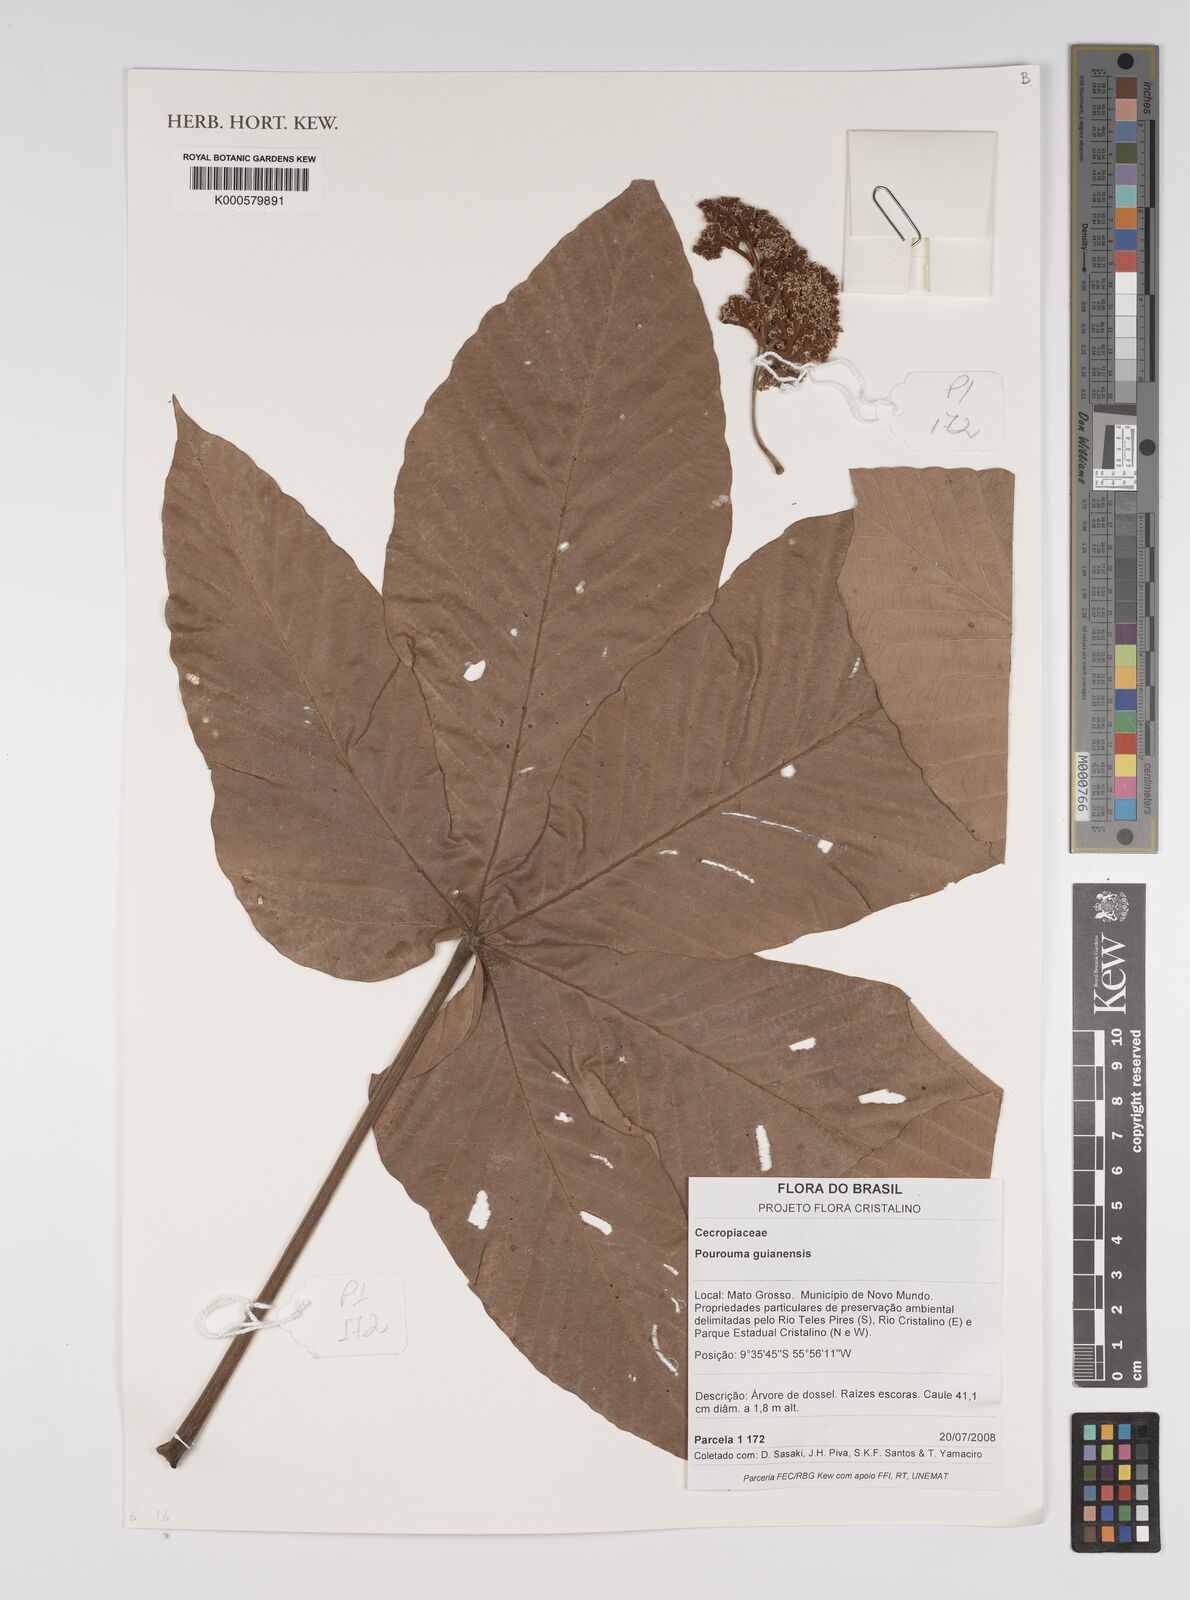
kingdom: Plantae
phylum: Tracheophyta
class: Magnoliopsida
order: Rosales
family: Urticaceae
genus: Pourouma
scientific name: Pourouma guianensis
